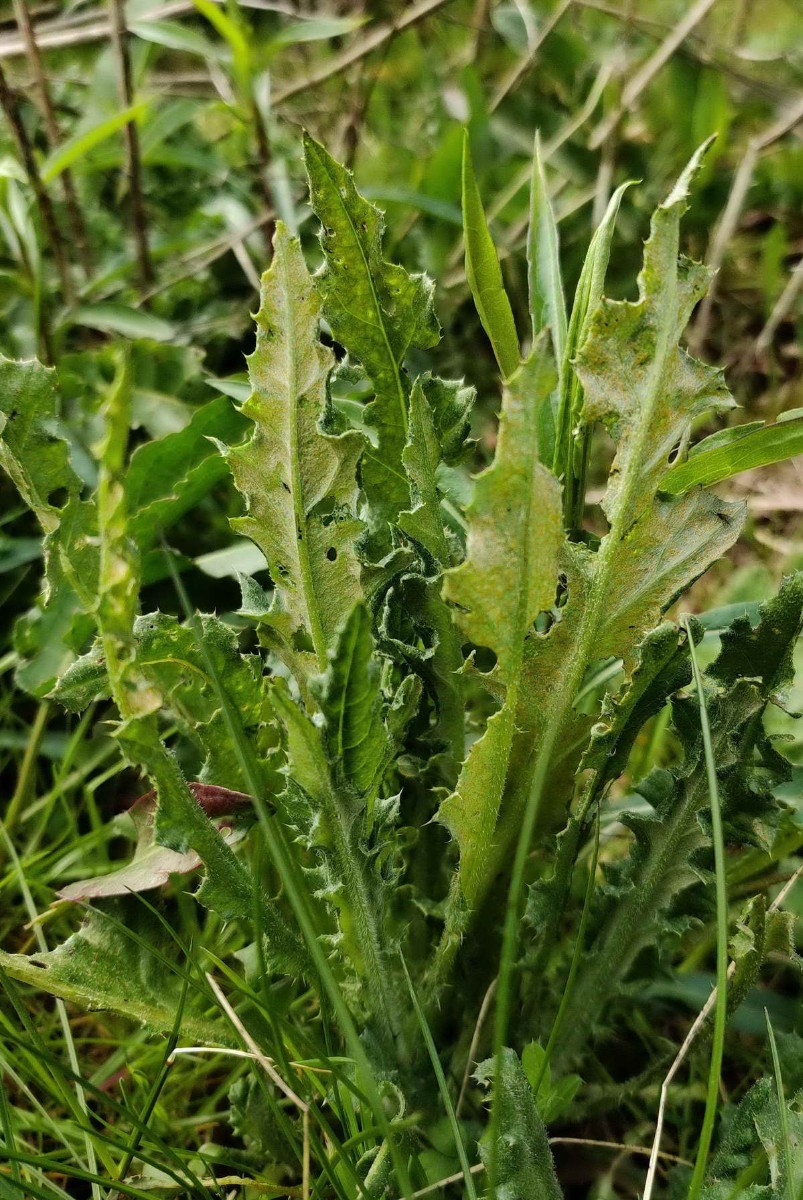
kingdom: Fungi
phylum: Basidiomycota
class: Pucciniomycetes
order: Pucciniales
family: Pucciniaceae
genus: Puccinia
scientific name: Puccinia suaveolens
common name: tidsel-tvecellerust
